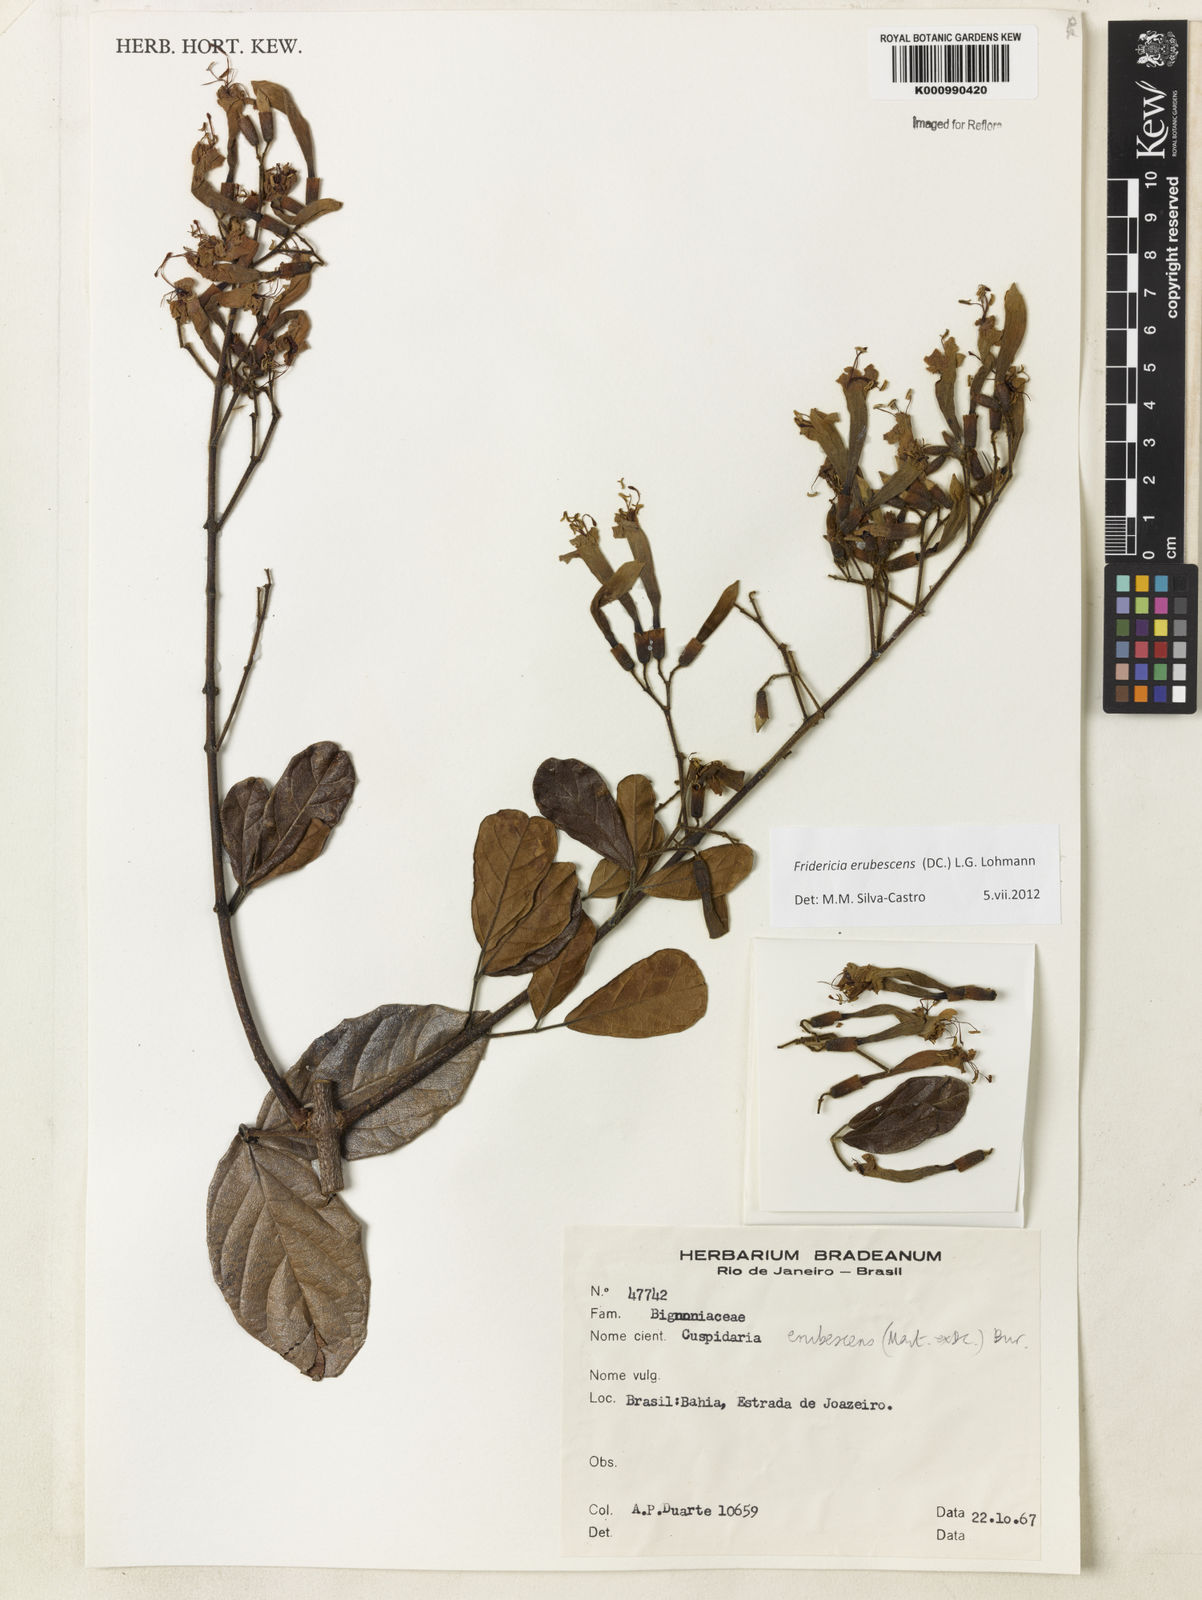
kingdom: Plantae
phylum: Tracheophyta
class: Magnoliopsida
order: Lamiales
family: Bignoniaceae
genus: Fridericia
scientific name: Fridericia erubescens
